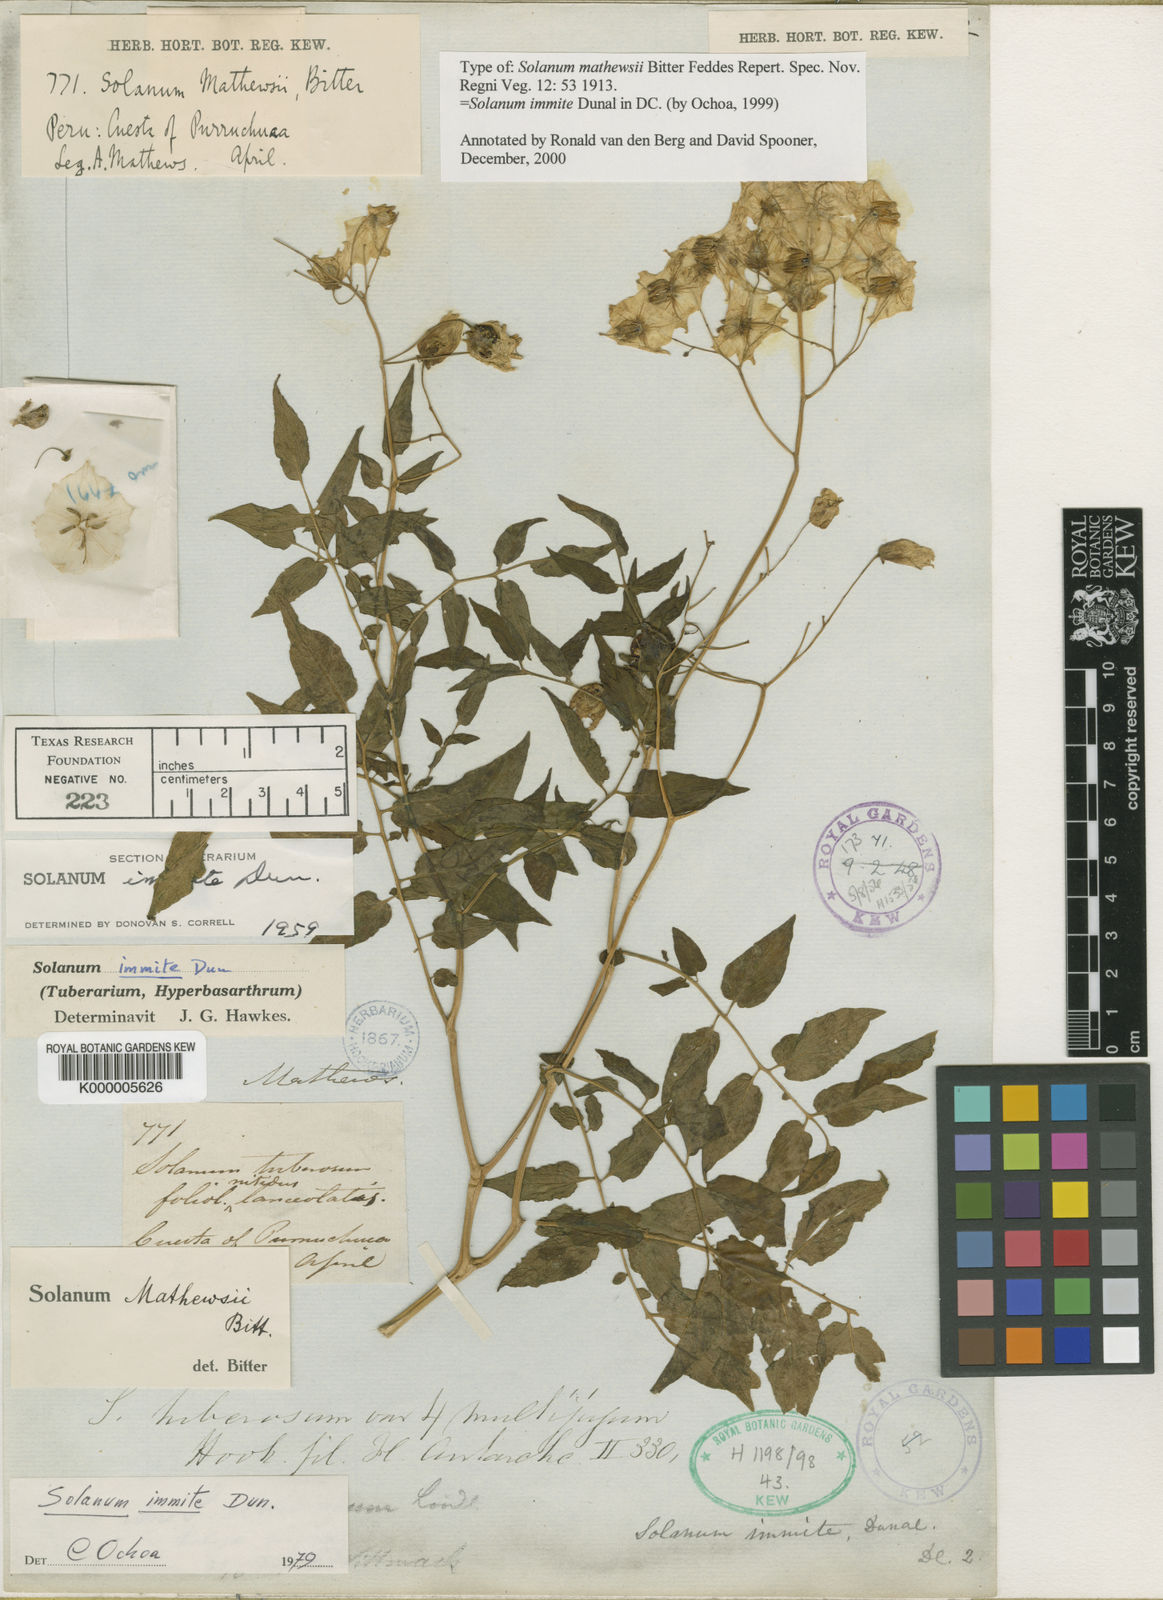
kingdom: Plantae
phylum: Tracheophyta
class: Magnoliopsida
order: Solanales
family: Solanaceae
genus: Solanum
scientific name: Solanum immite
